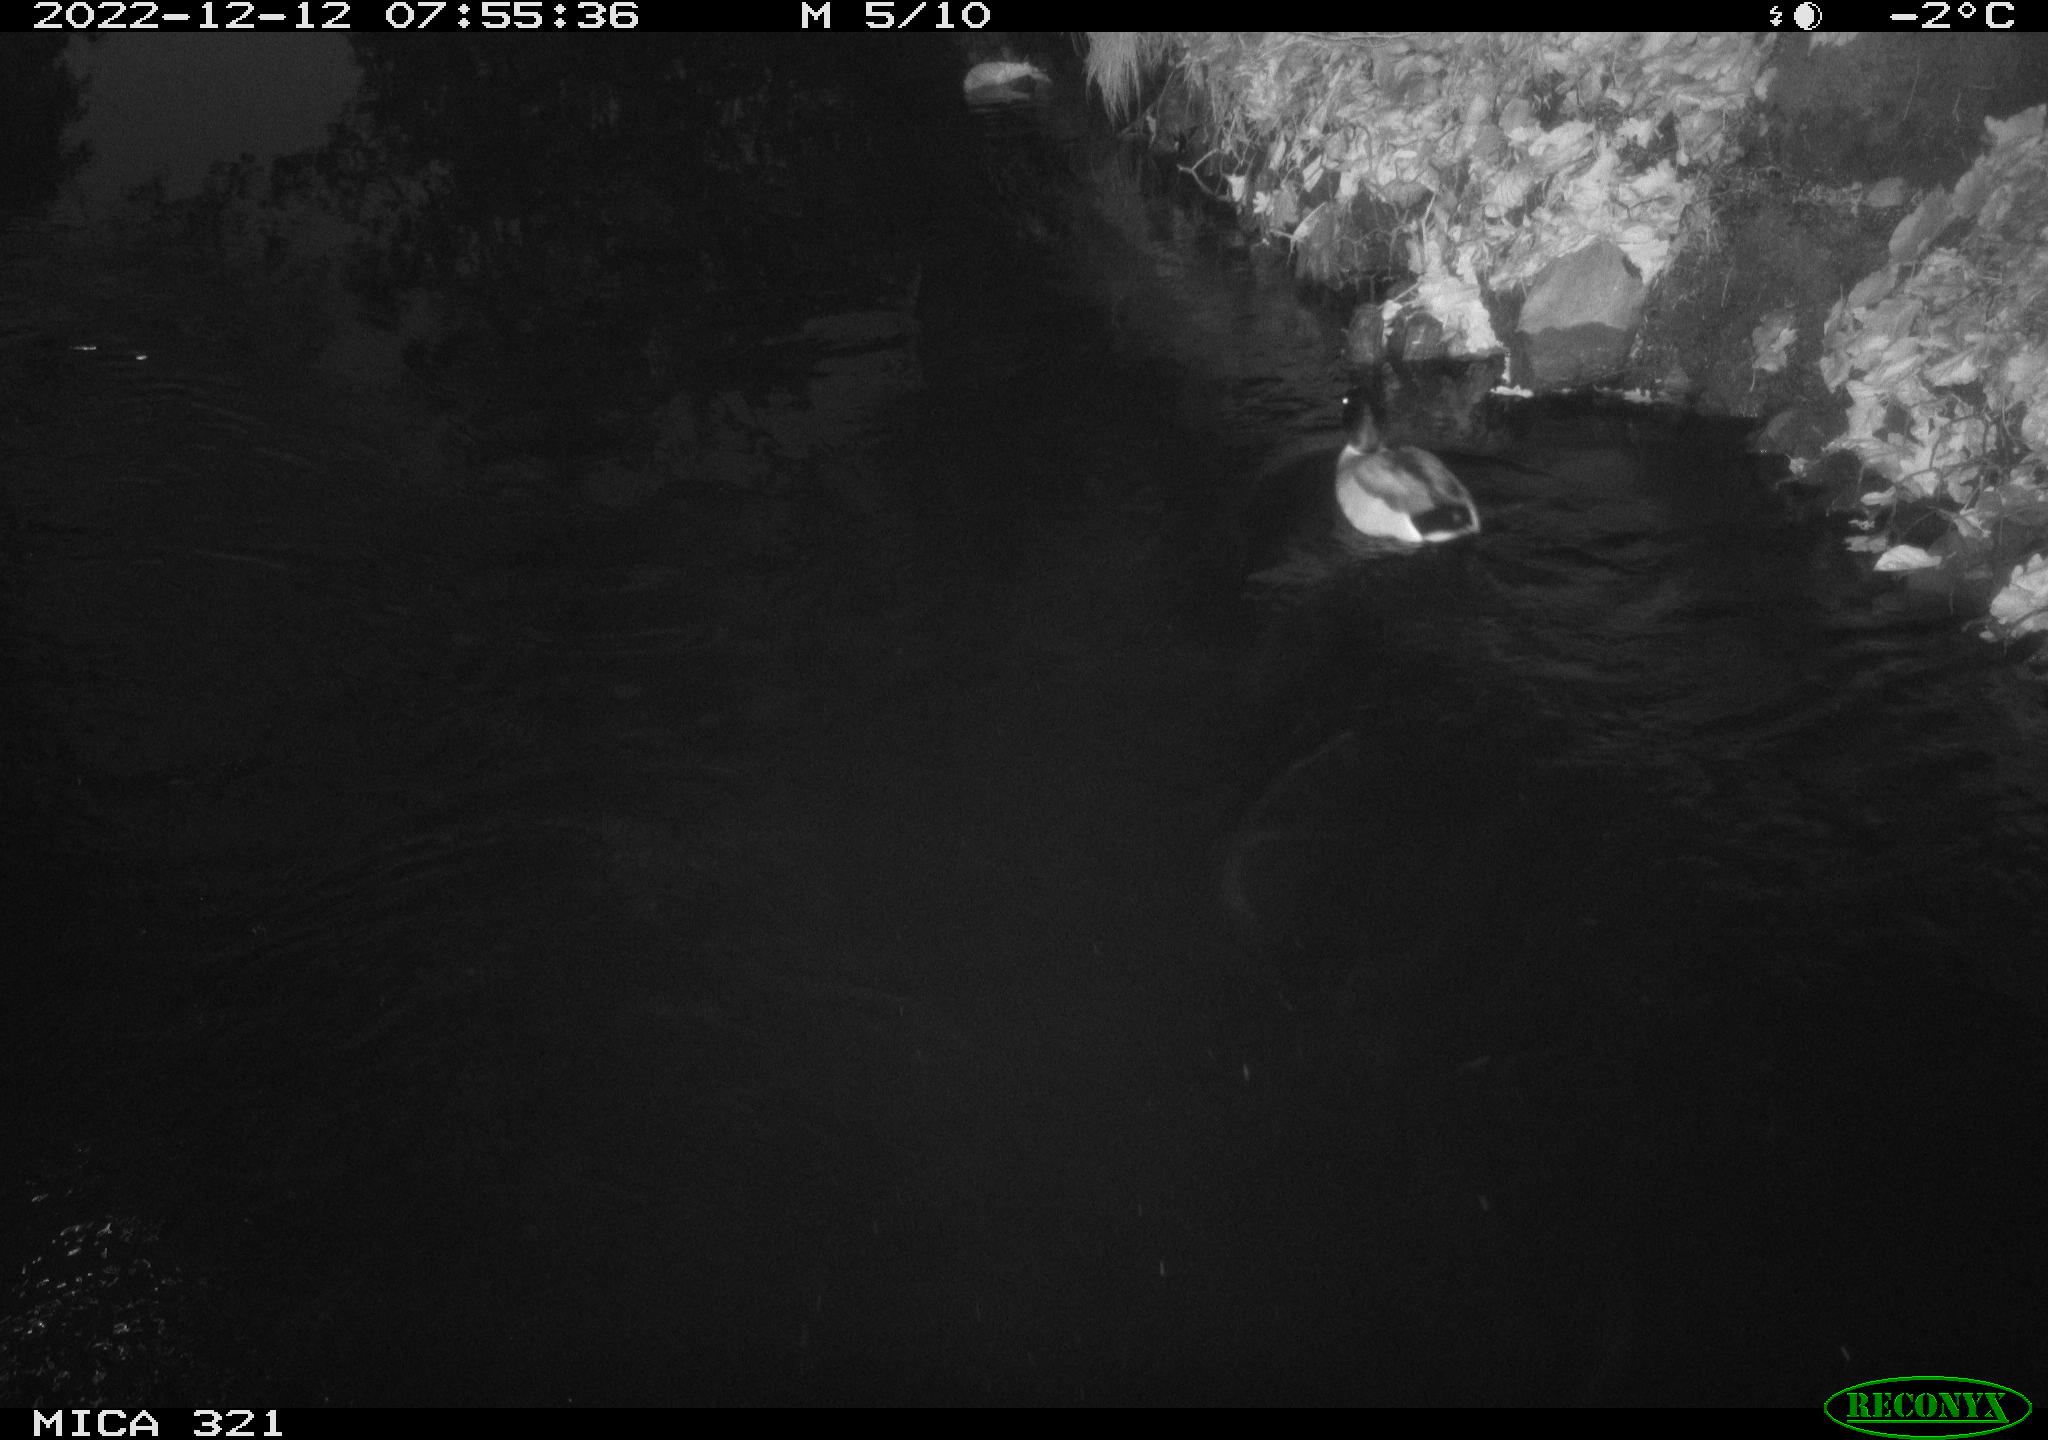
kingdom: Animalia
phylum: Chordata
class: Aves
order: Anseriformes
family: Anatidae
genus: Anas
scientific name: Anas
